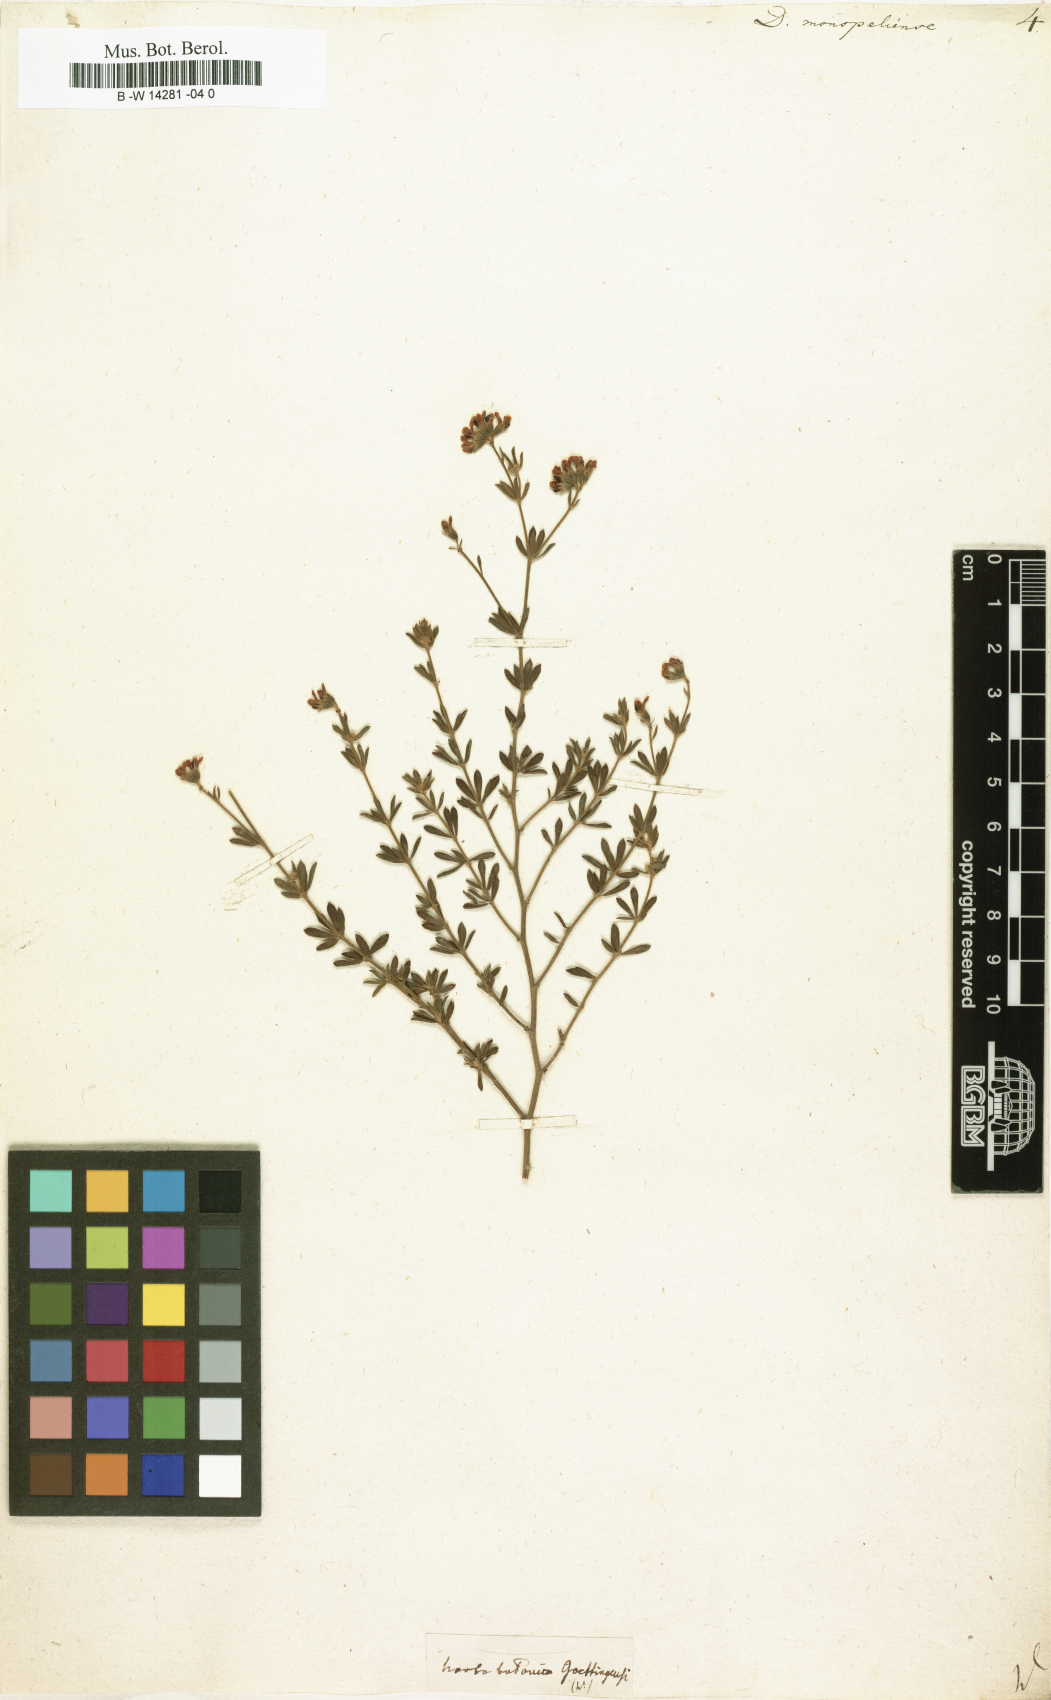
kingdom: Plantae
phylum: Tracheophyta
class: Magnoliopsida
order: Fabales
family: Fabaceae
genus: Lotus
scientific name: Lotus dorycnium
